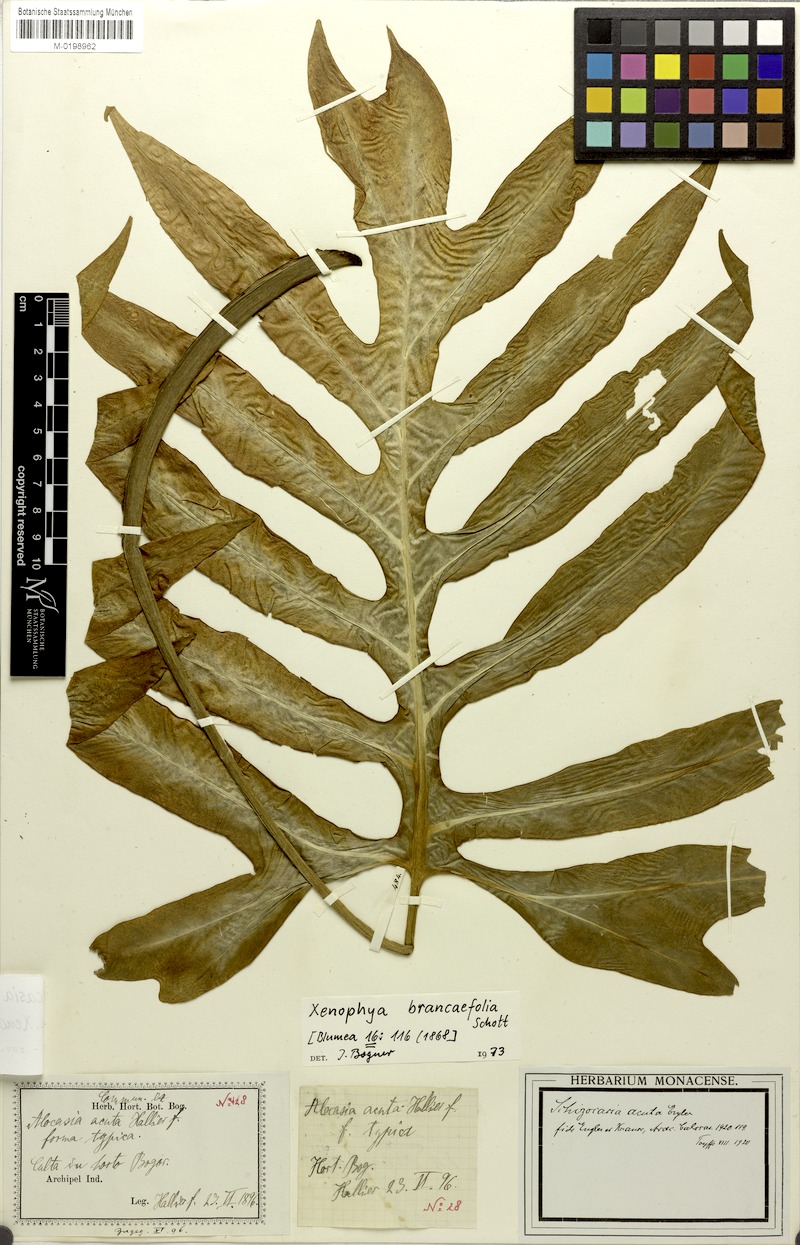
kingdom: Plantae
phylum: Tracheophyta
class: Liliopsida
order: Alismatales
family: Araceae
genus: Alocasia
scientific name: Alocasia brancifolia
